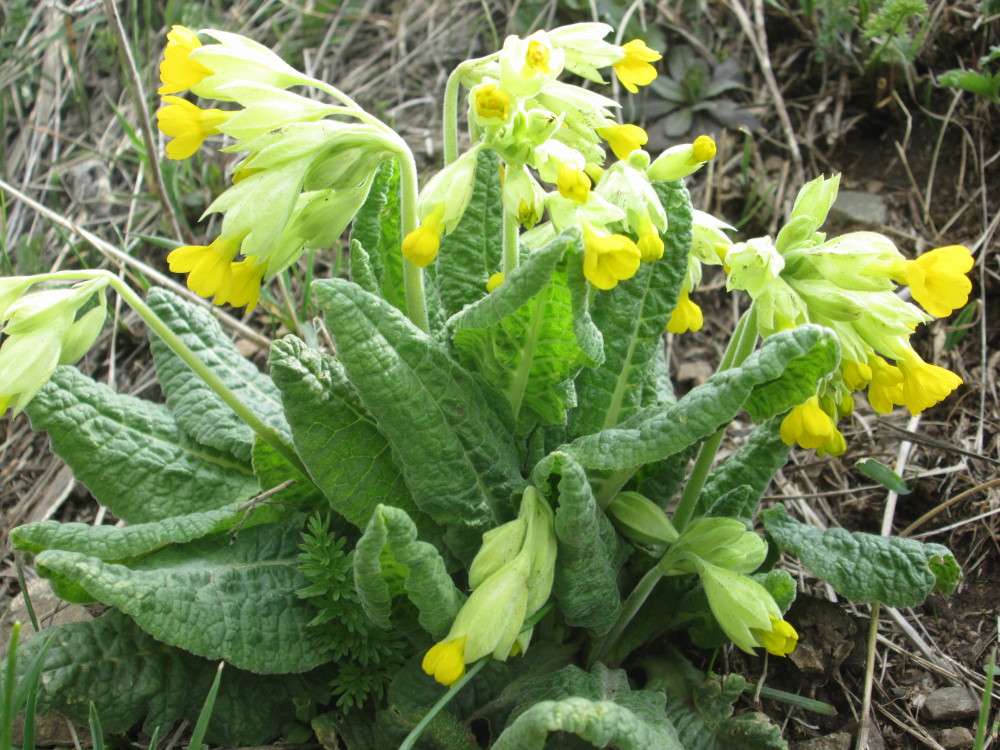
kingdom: Plantae
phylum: Tracheophyta
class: Magnoliopsida
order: Ericales
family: Primulaceae
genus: Primula
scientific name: Primula veris
